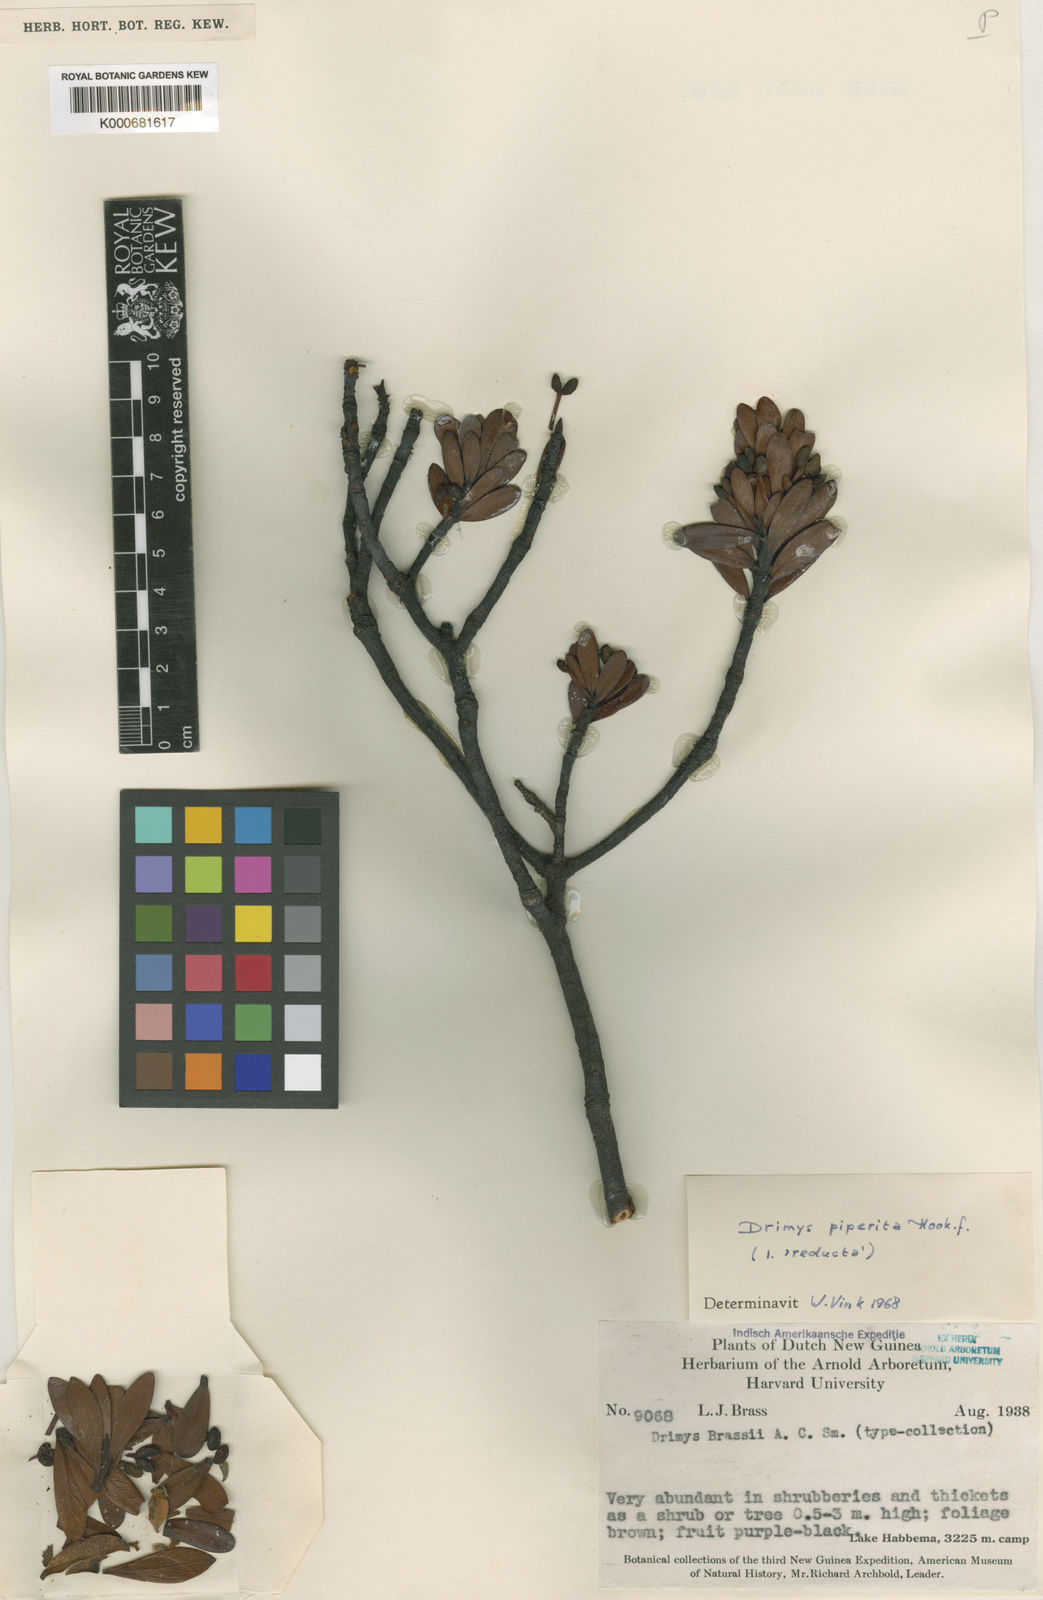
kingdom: Plantae
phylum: Tracheophyta
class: Magnoliopsida
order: Canellales
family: Winteraceae
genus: Drimys
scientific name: Drimys piperita
